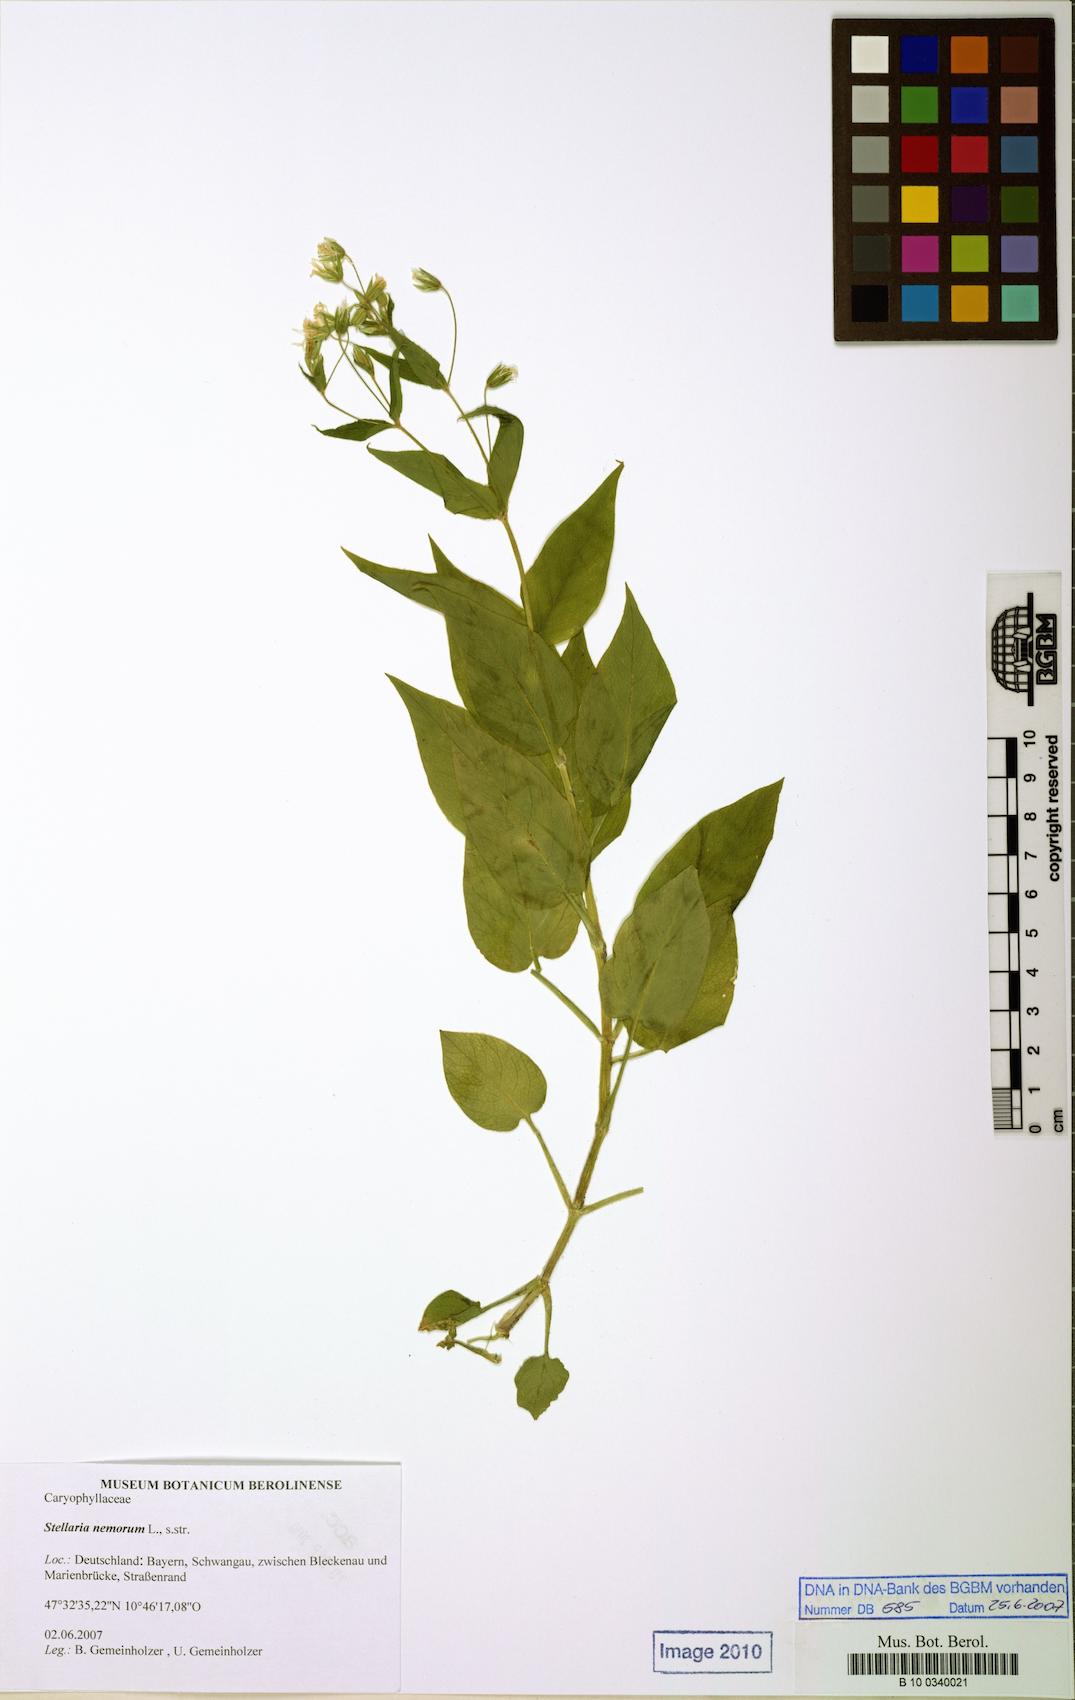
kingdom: Plantae
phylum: Tracheophyta
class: Magnoliopsida
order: Caryophyllales
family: Caryophyllaceae
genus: Stellaria
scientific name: Stellaria
